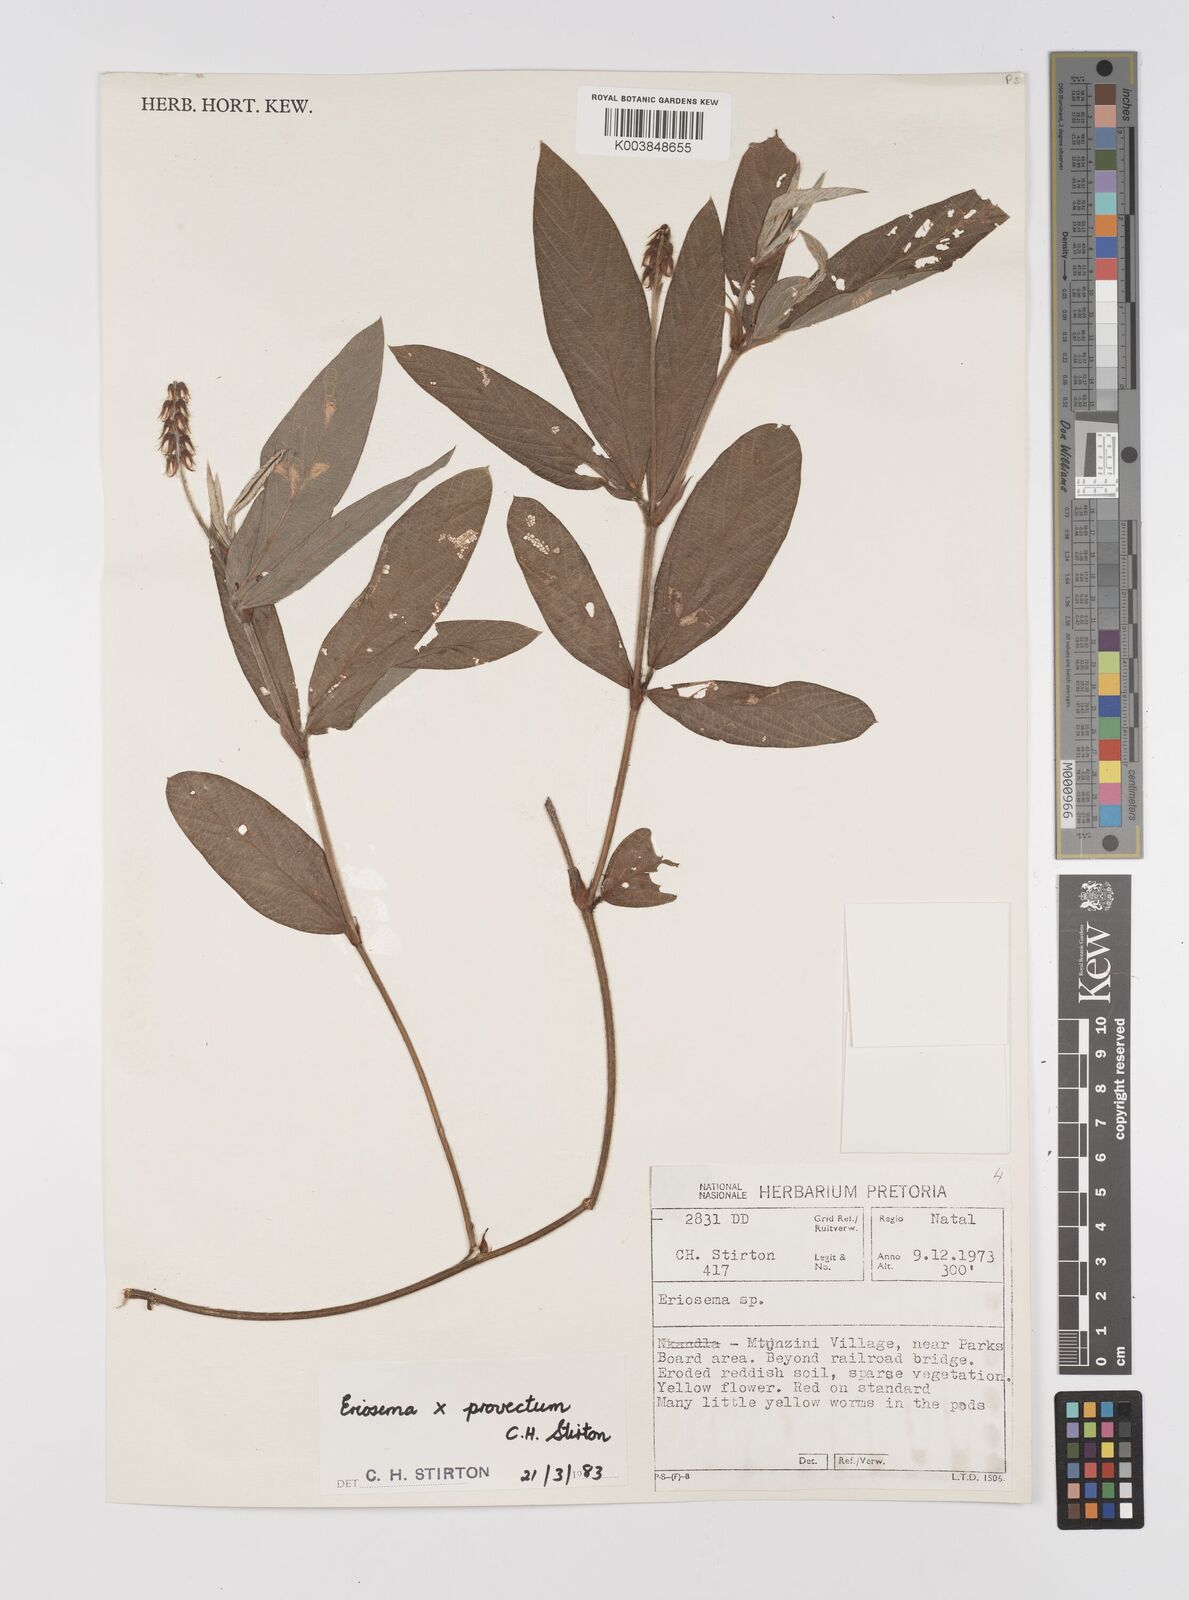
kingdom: Plantae
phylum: Tracheophyta
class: Magnoliopsida
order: Fabales
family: Fabaceae
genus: Eriosema
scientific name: Eriosema provectum
